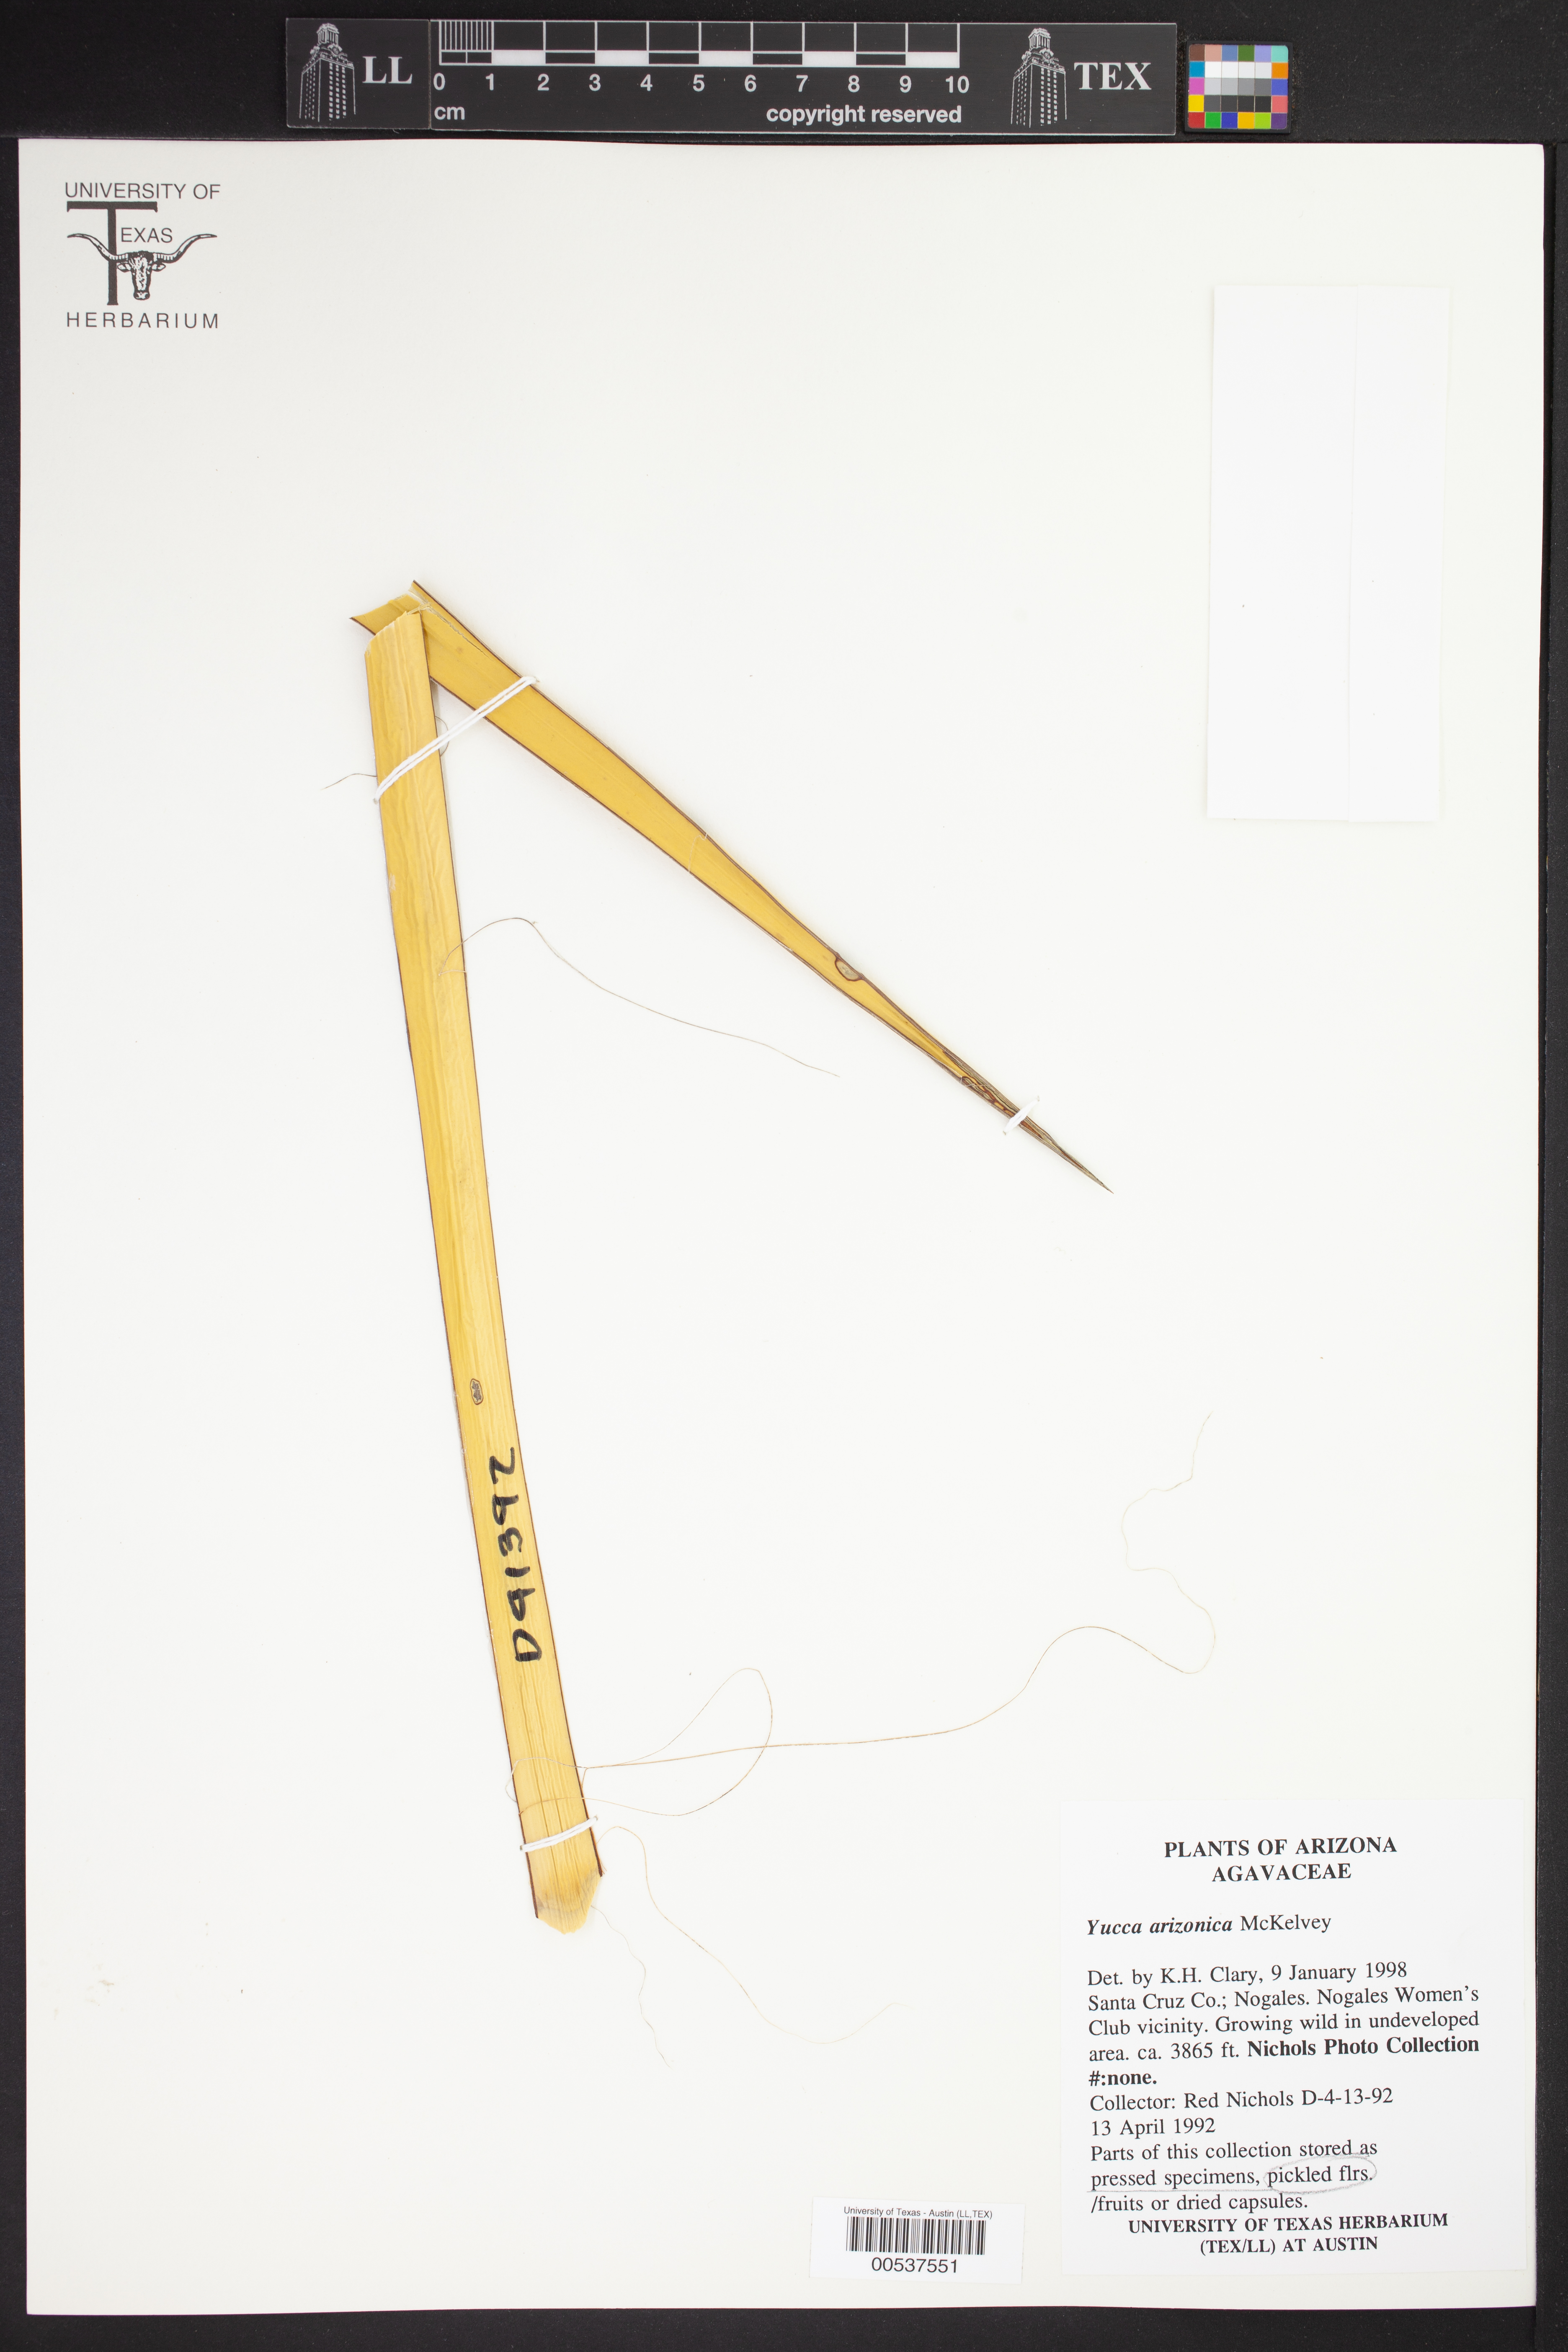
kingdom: Plantae
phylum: Tracheophyta
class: Liliopsida
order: Asparagales
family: Asparagaceae
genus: Yucca
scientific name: Yucca baccata
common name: Banana yucca
